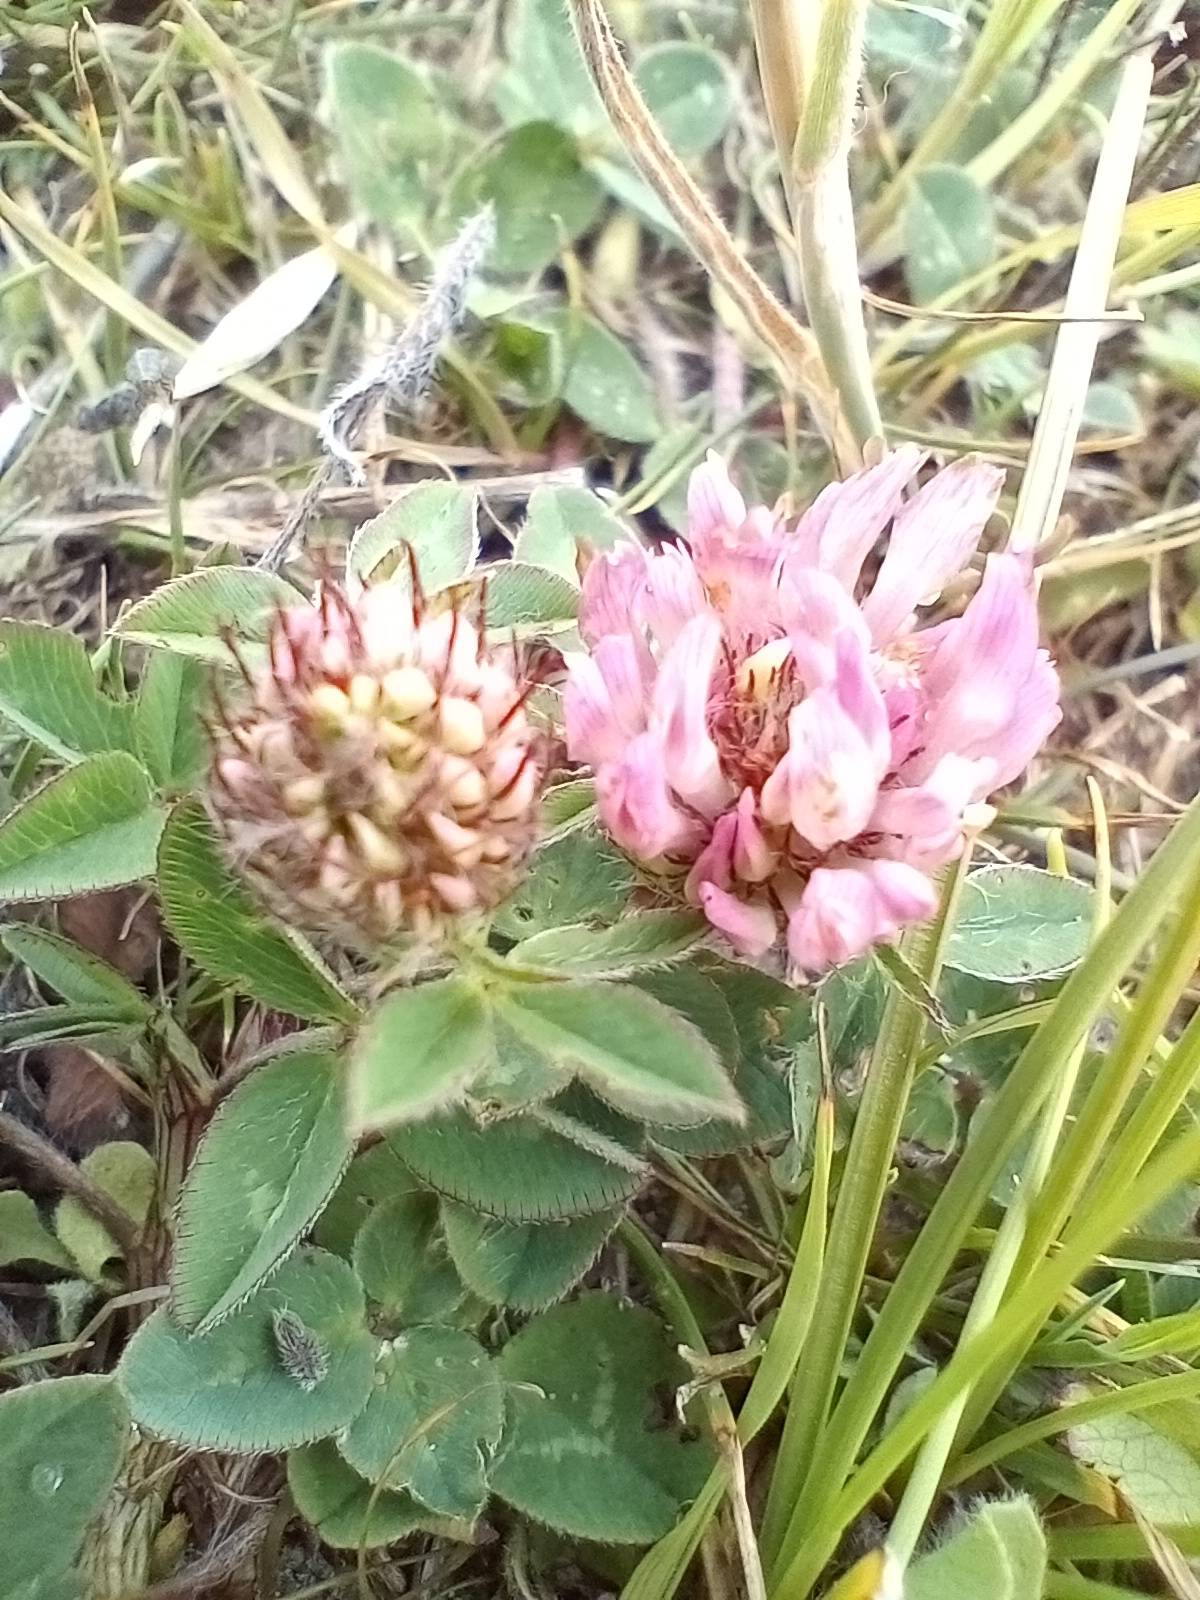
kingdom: Plantae
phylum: Tracheophyta
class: Magnoliopsida
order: Fabales
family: Fabaceae
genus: Trifolium
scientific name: Trifolium pratense
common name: Rød-kløver
